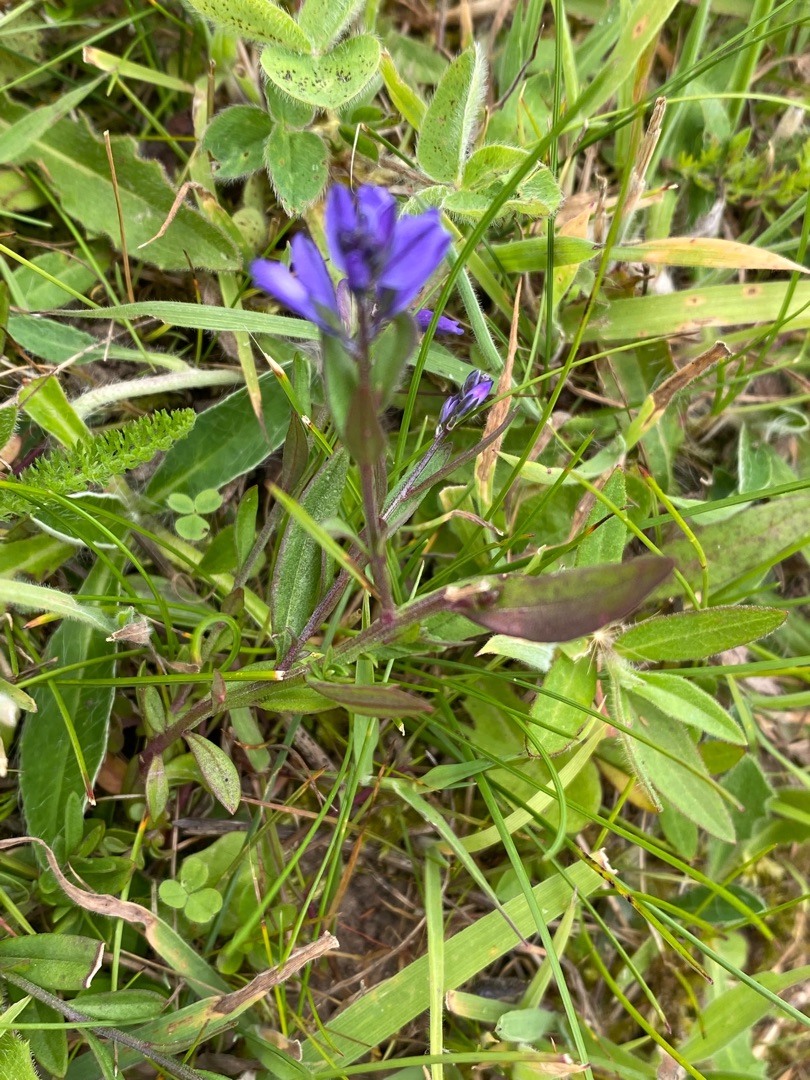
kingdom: Plantae
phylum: Tracheophyta
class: Magnoliopsida
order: Fabales
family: Polygalaceae
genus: Polygala
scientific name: Polygala vulgaris
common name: Almindelig mælkeurt
